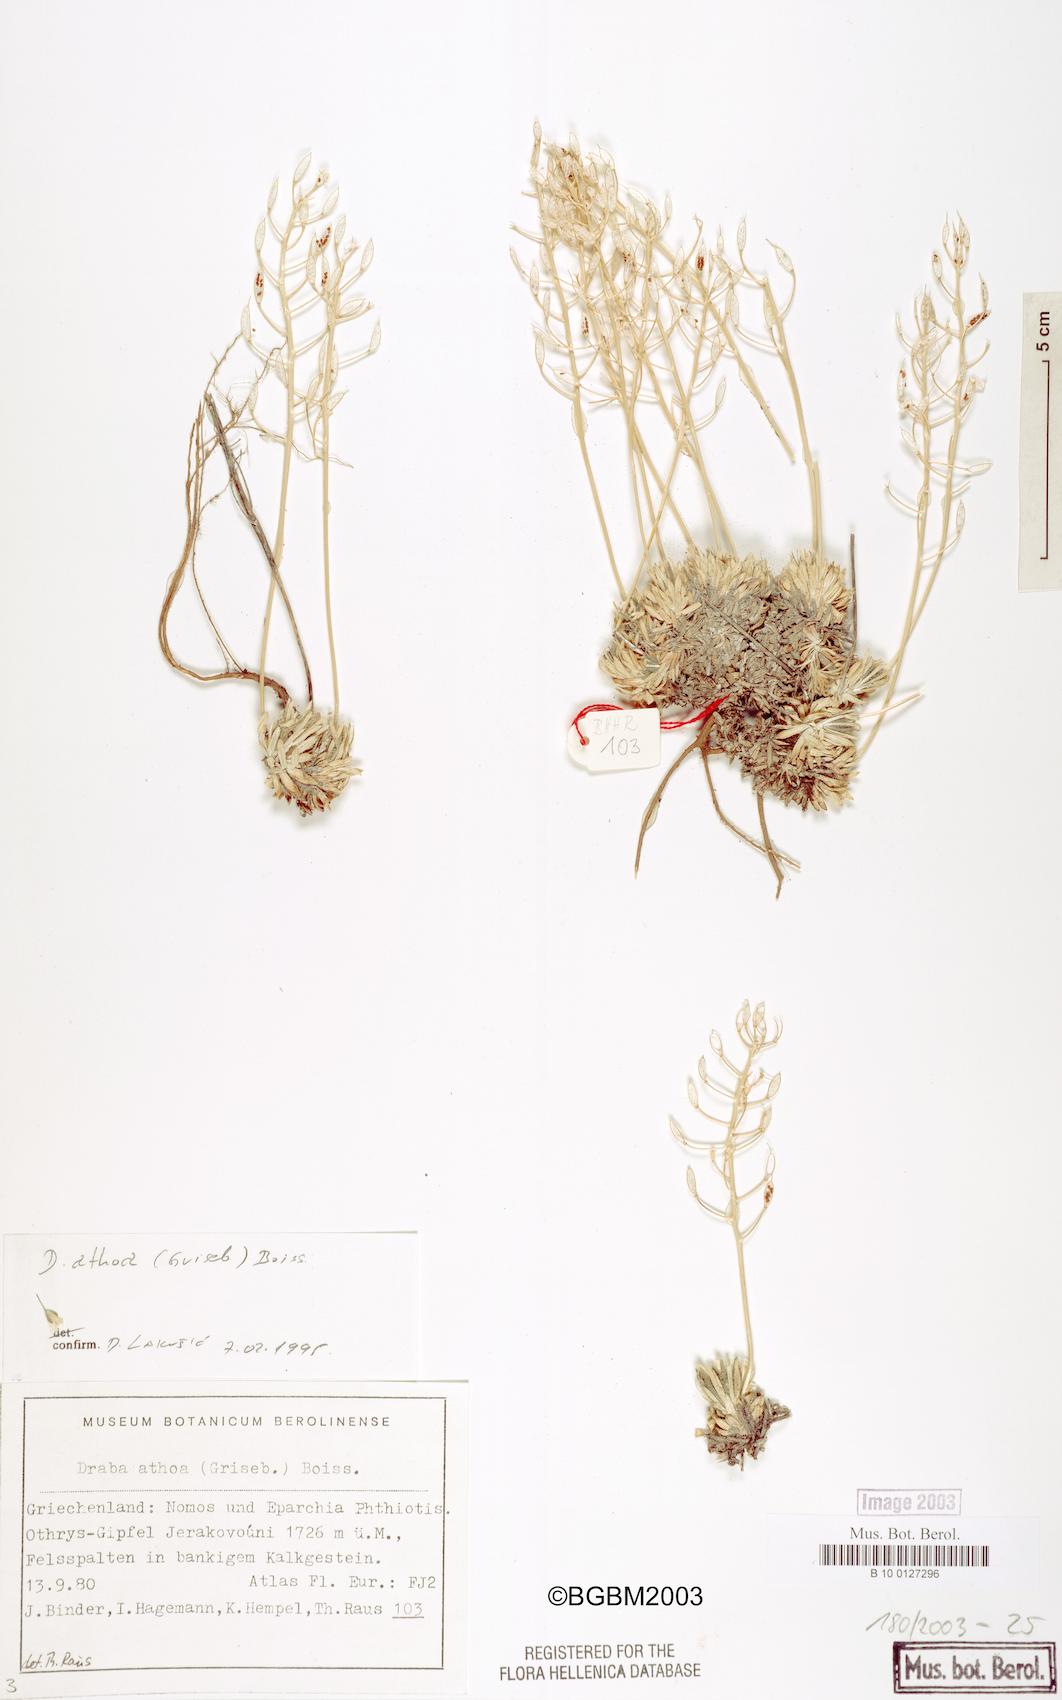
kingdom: Plantae
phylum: Tracheophyta
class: Magnoliopsida
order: Brassicales
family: Brassicaceae
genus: Draba
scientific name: Draba lasiocarpa
